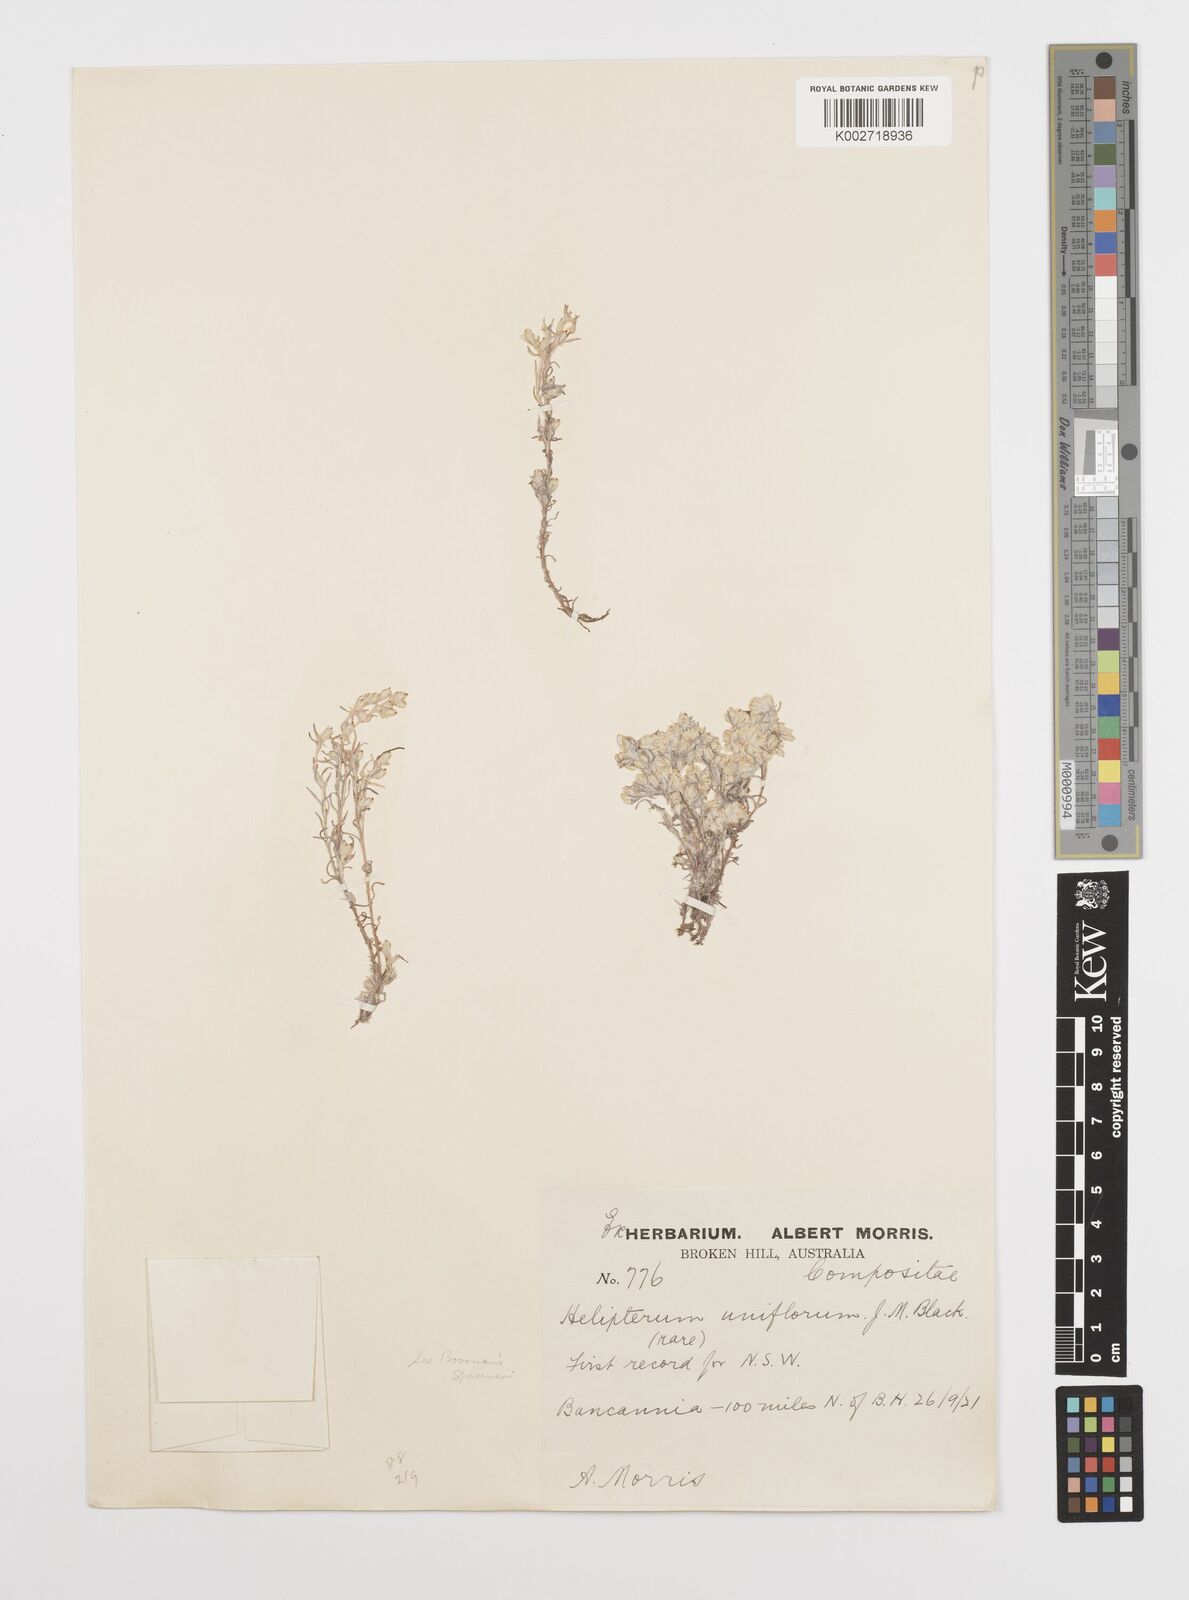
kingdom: Plantae
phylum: Tracheophyta
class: Magnoliopsida
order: Asterales
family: Asteraceae
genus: Rhodanthe
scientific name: Rhodanthe uniflora
